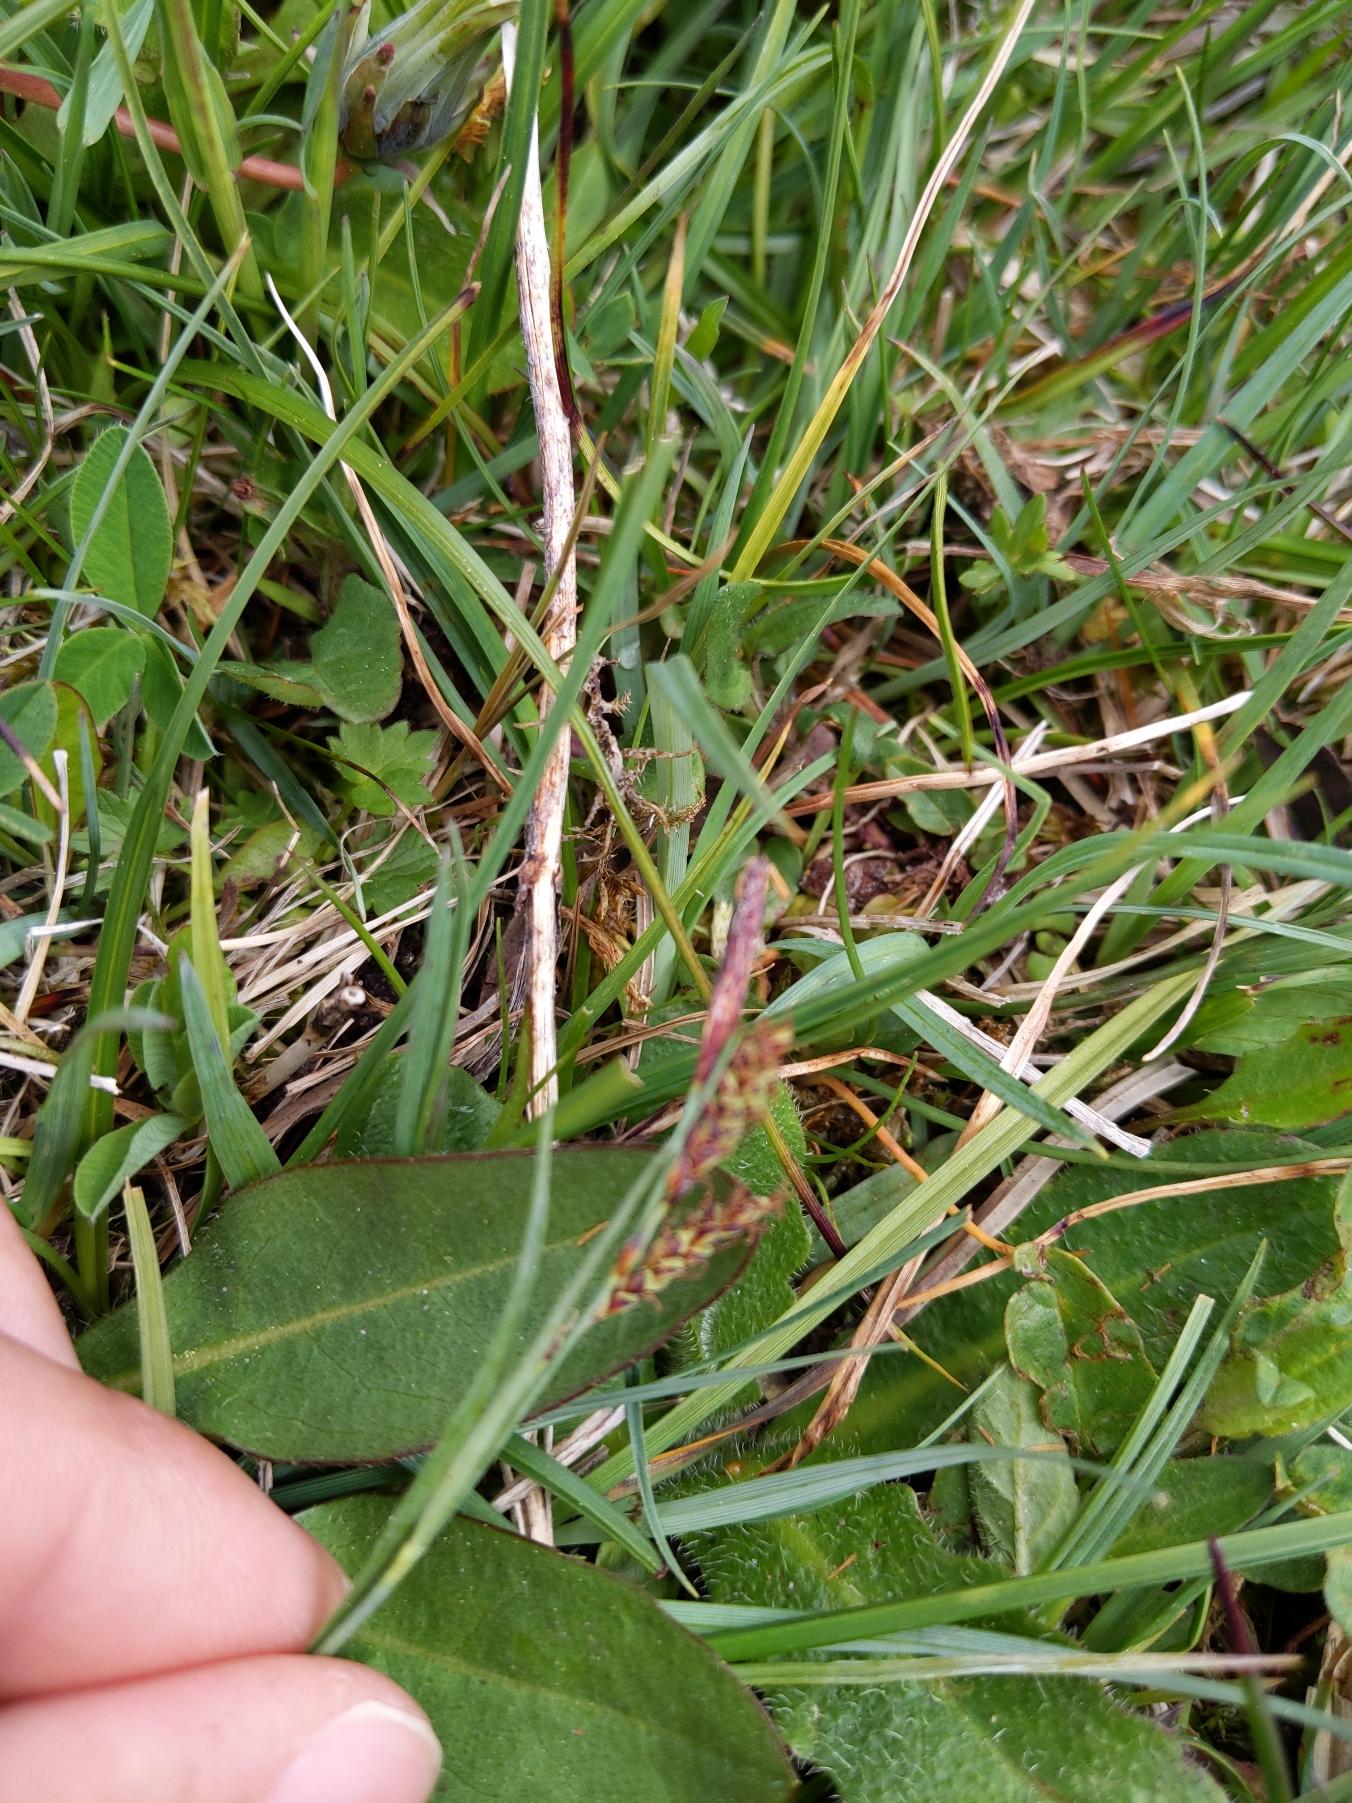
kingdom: Plantae
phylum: Tracheophyta
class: Liliopsida
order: Poales
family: Cyperaceae
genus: Carex
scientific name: Carex flacca
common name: Blågrøn star
